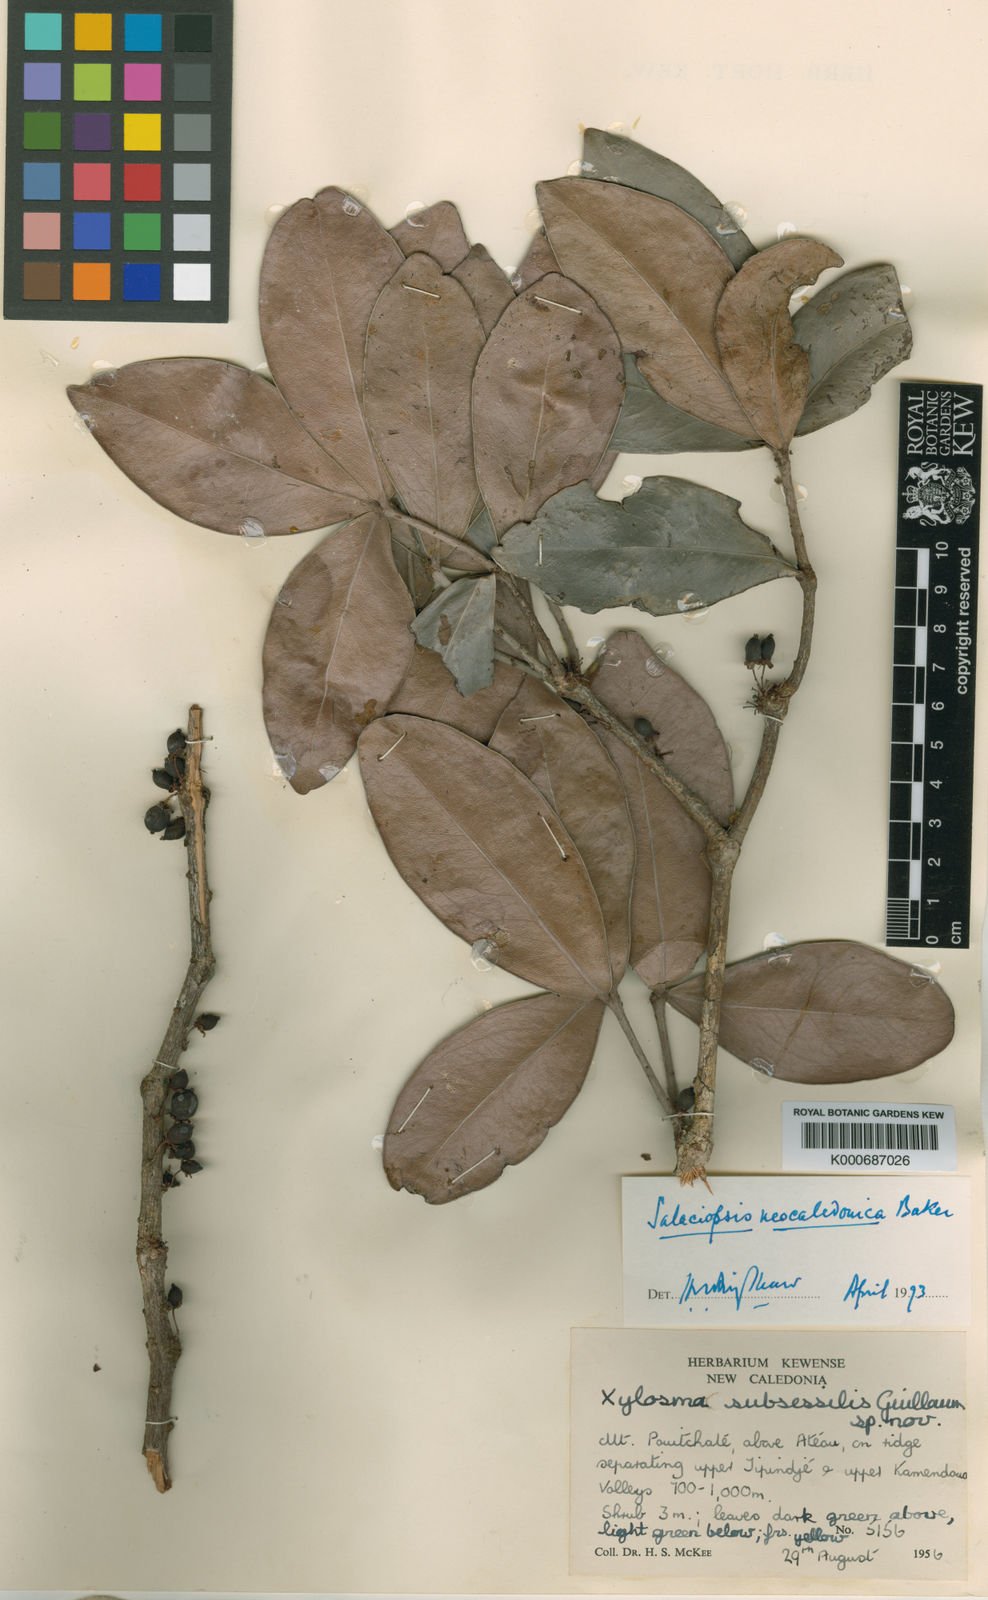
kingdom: Plantae
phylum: Tracheophyta
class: Magnoliopsida
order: Celastrales
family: Celastraceae
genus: Salaciopsis
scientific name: Salaciopsis neocaledonica
